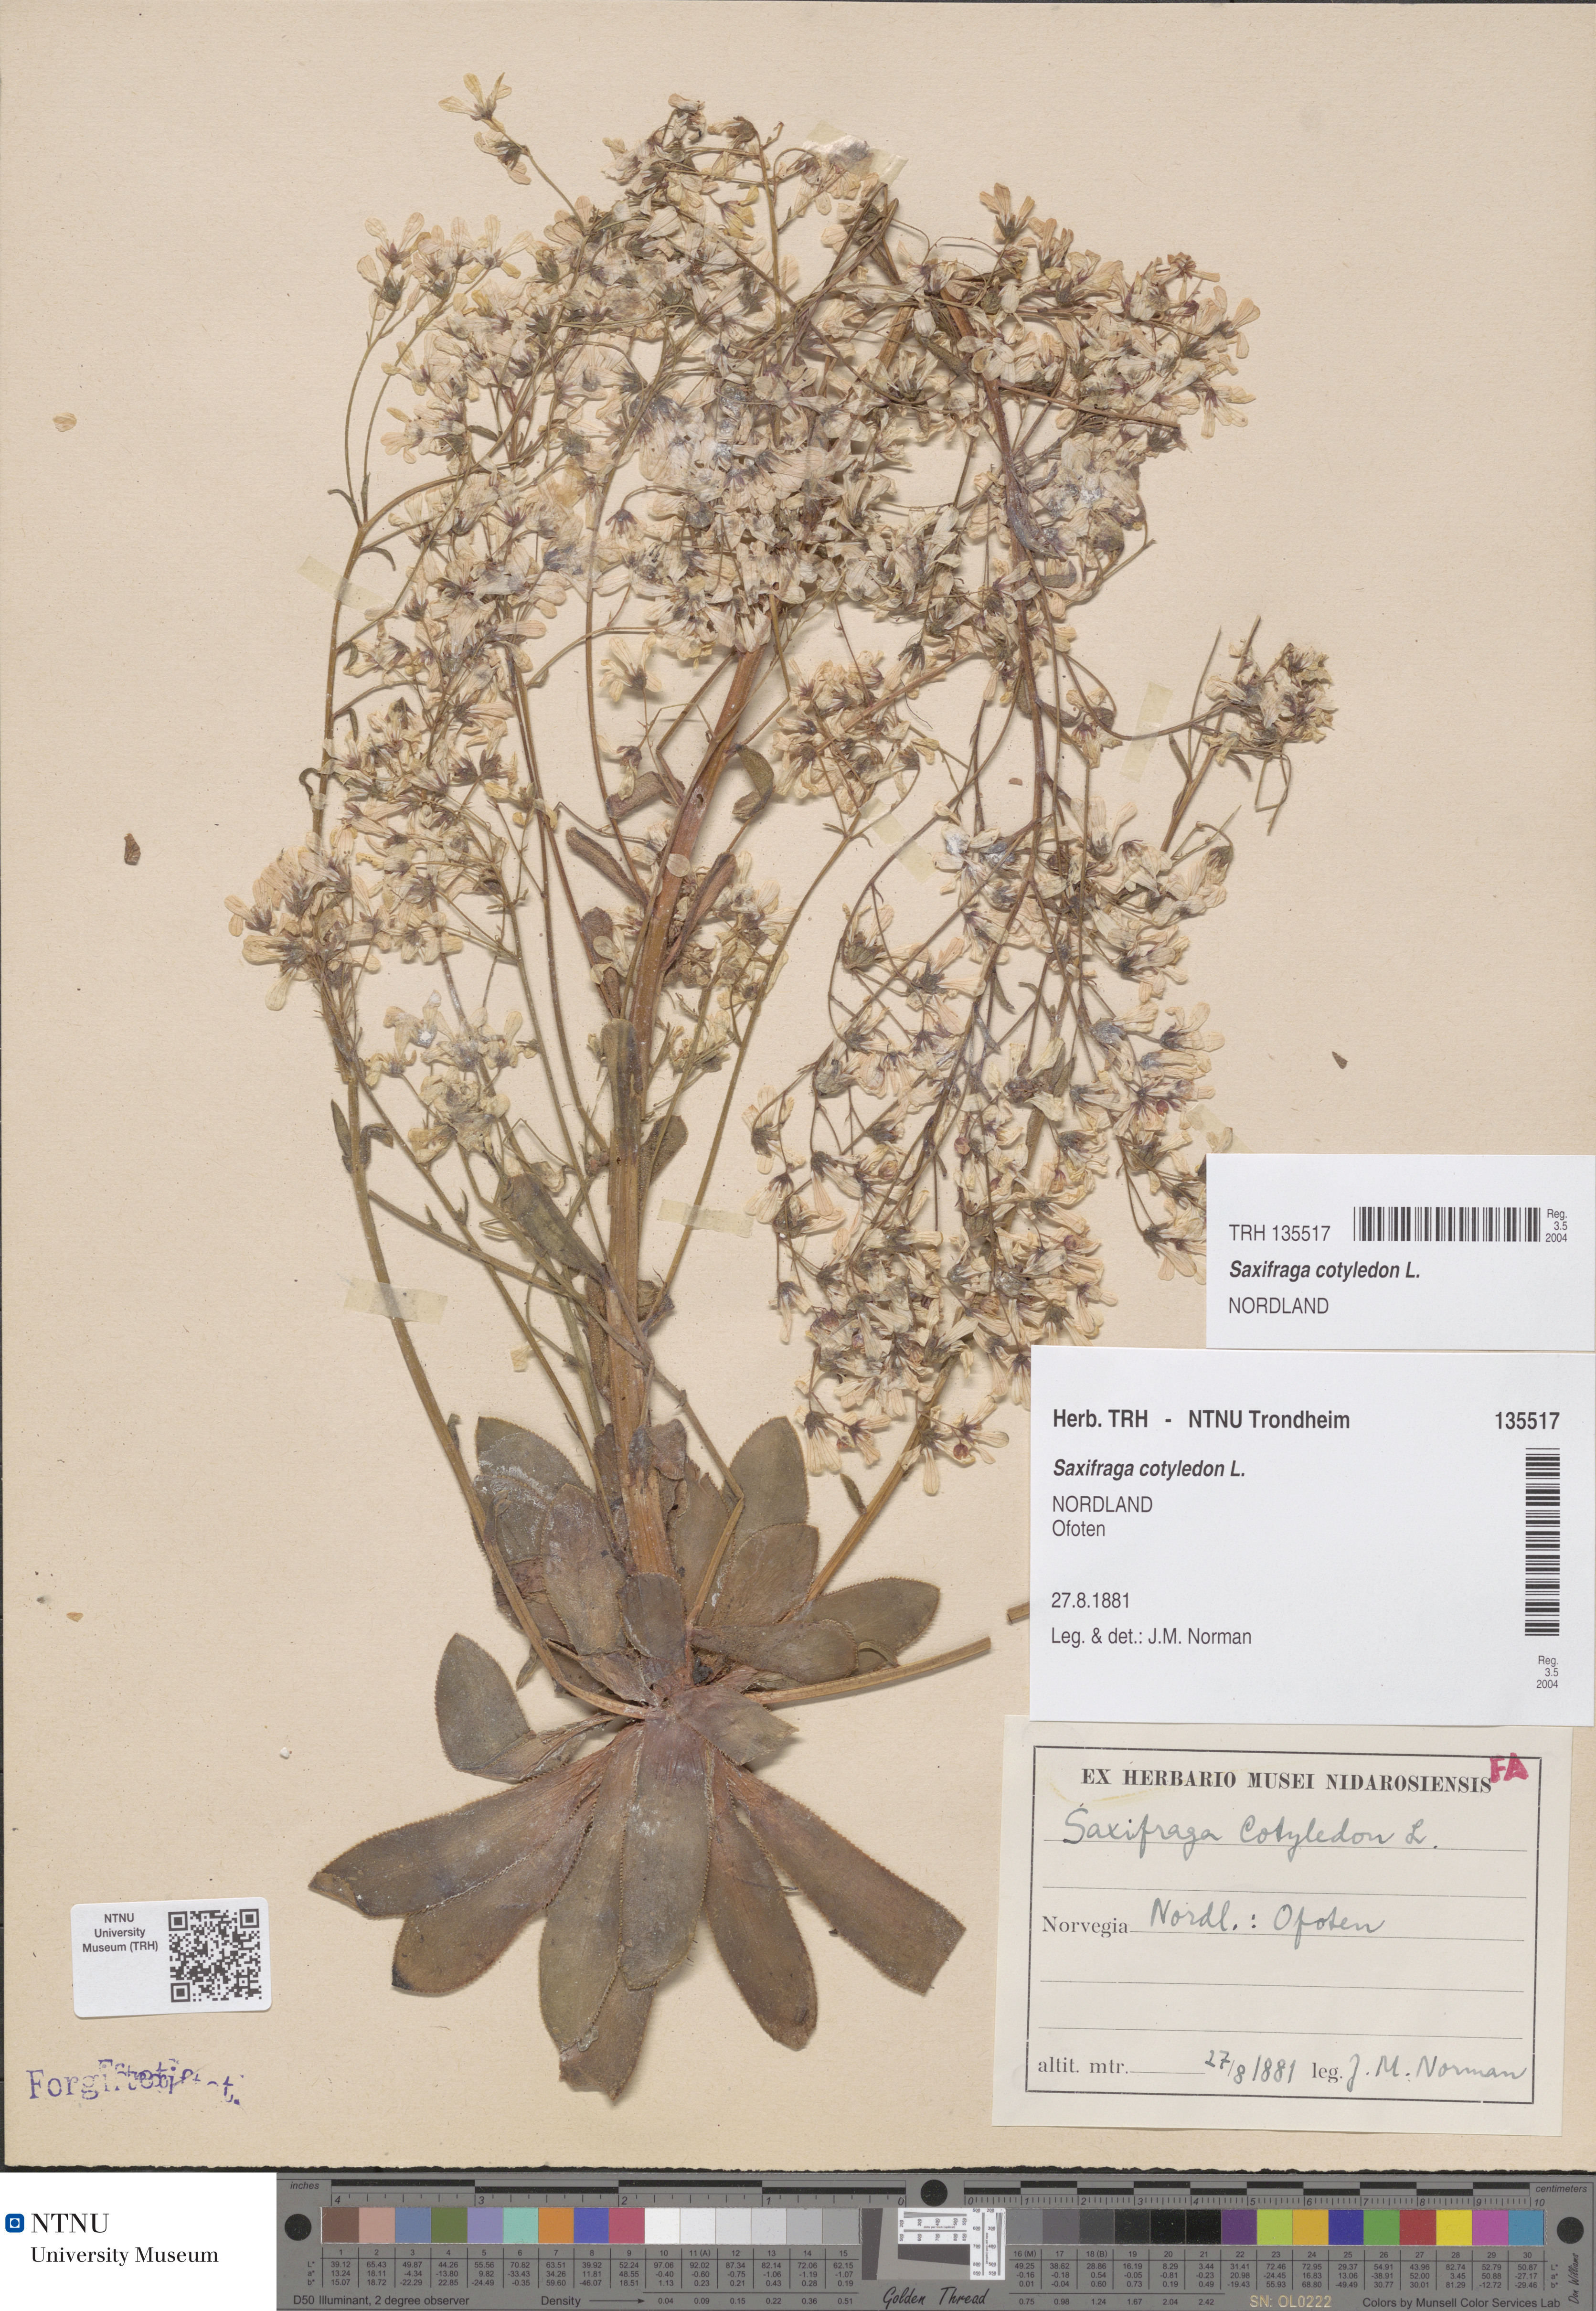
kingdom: Plantae
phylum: Tracheophyta
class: Magnoliopsida
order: Saxifragales
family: Saxifragaceae
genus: Saxifraga
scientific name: Saxifraga cotyledon
